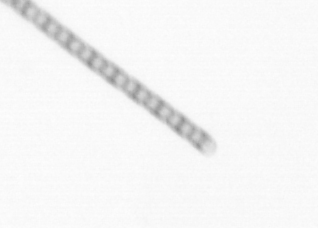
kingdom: Chromista
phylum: Ochrophyta
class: Bacillariophyceae
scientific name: Bacillariophyceae
